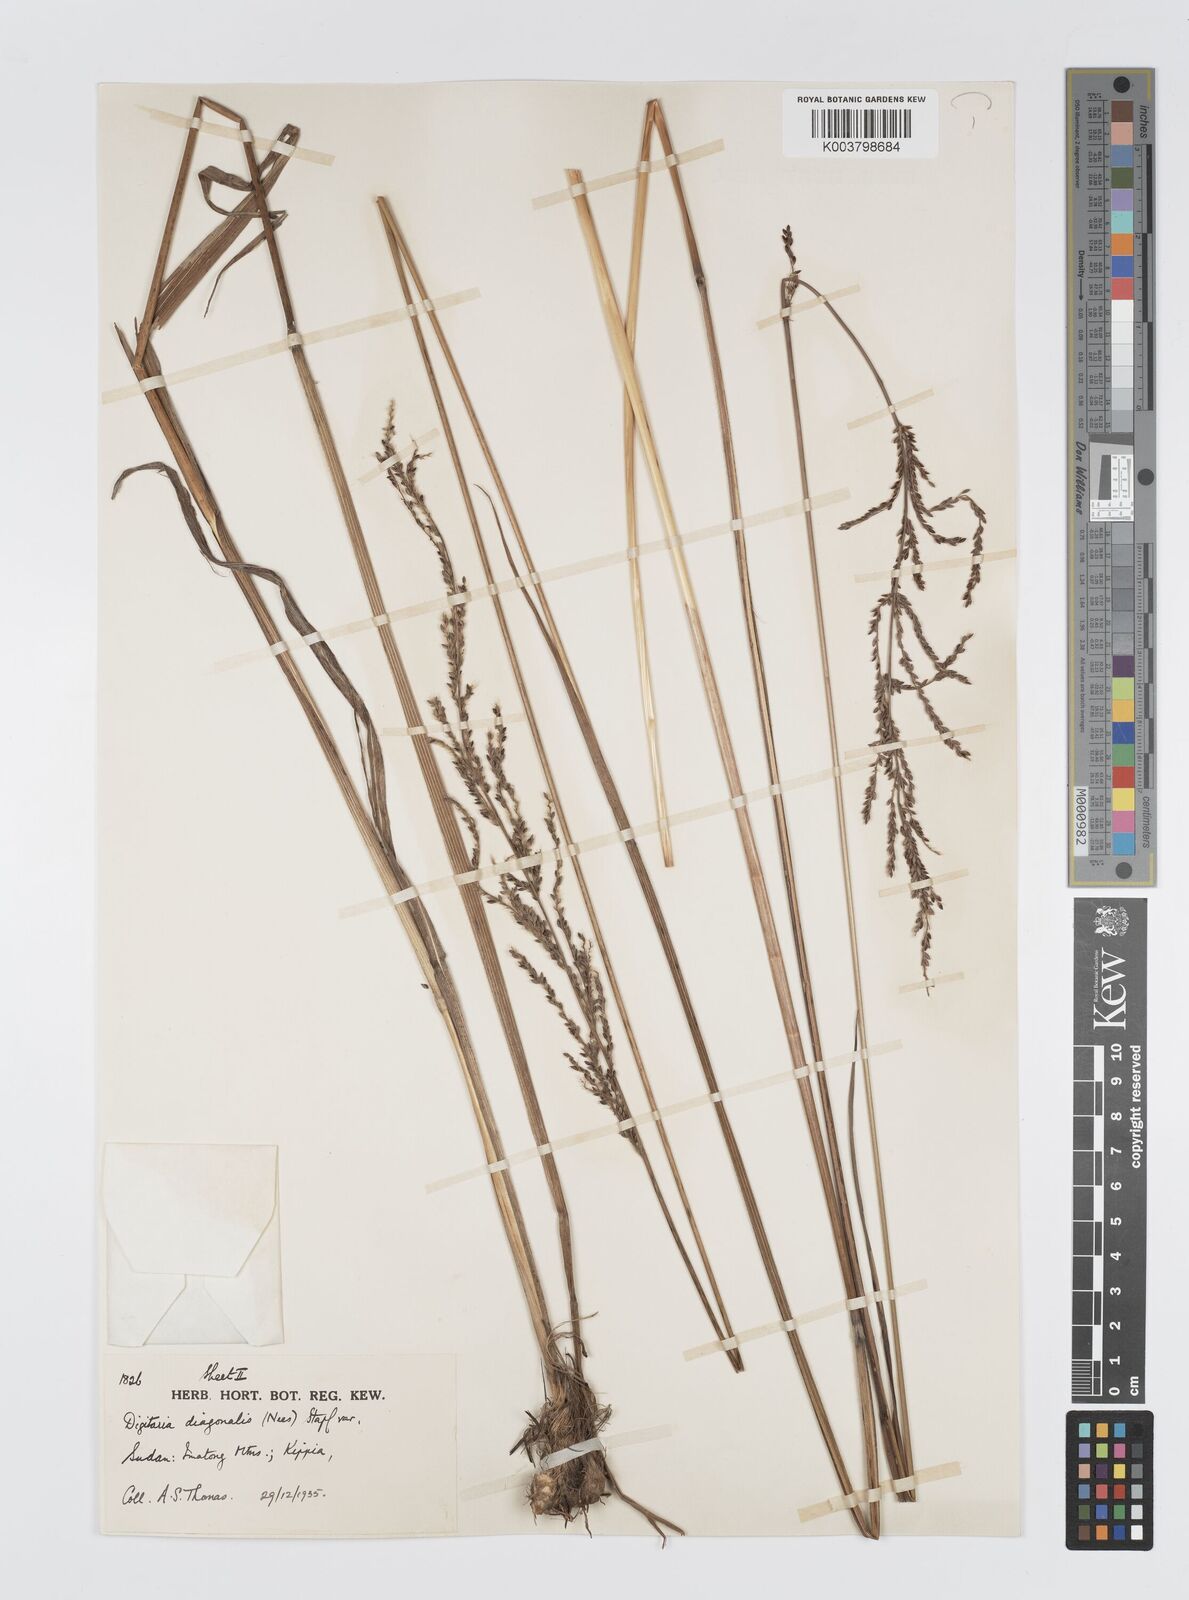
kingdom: Plantae
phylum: Tracheophyta
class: Liliopsida
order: Poales
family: Poaceae
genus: Digitaria
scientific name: Digitaria diagonalis
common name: Brown-seed finger grass
